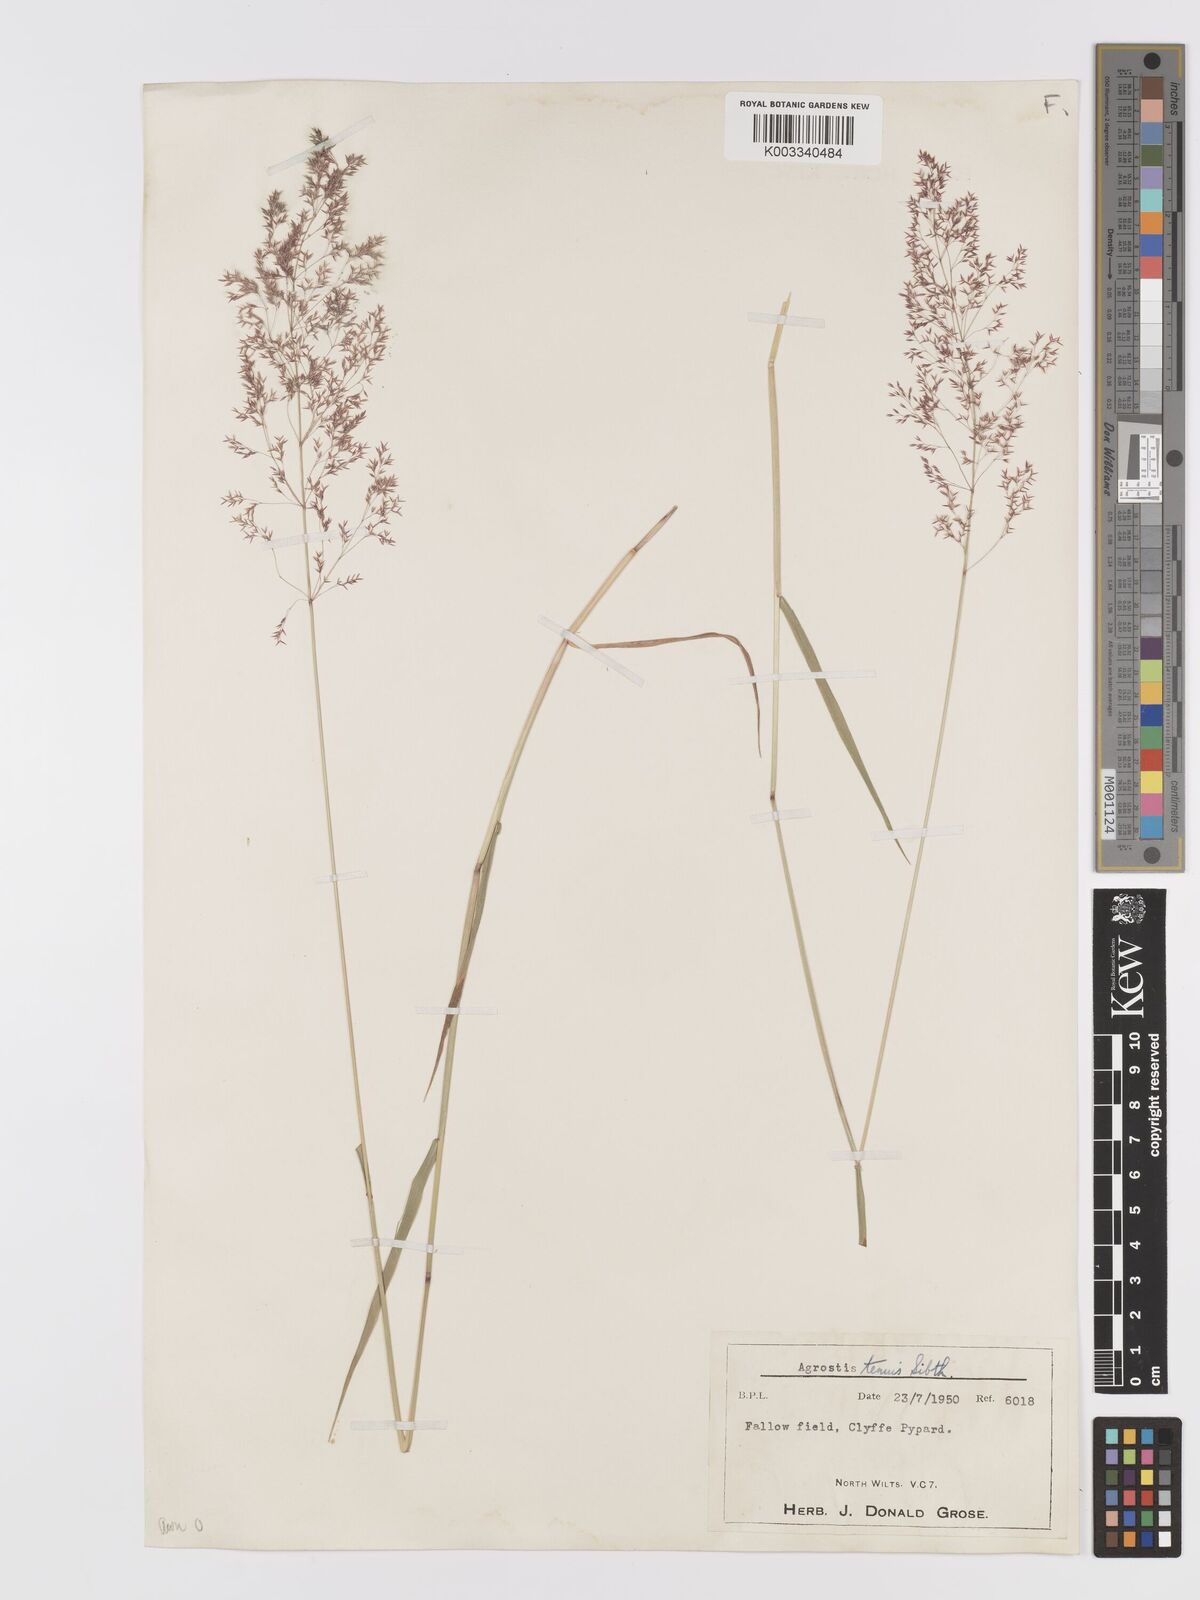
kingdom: Plantae
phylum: Tracheophyta
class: Liliopsida
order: Poales
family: Poaceae
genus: Agrostis
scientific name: Agrostis capillaris
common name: Colonial bentgrass
